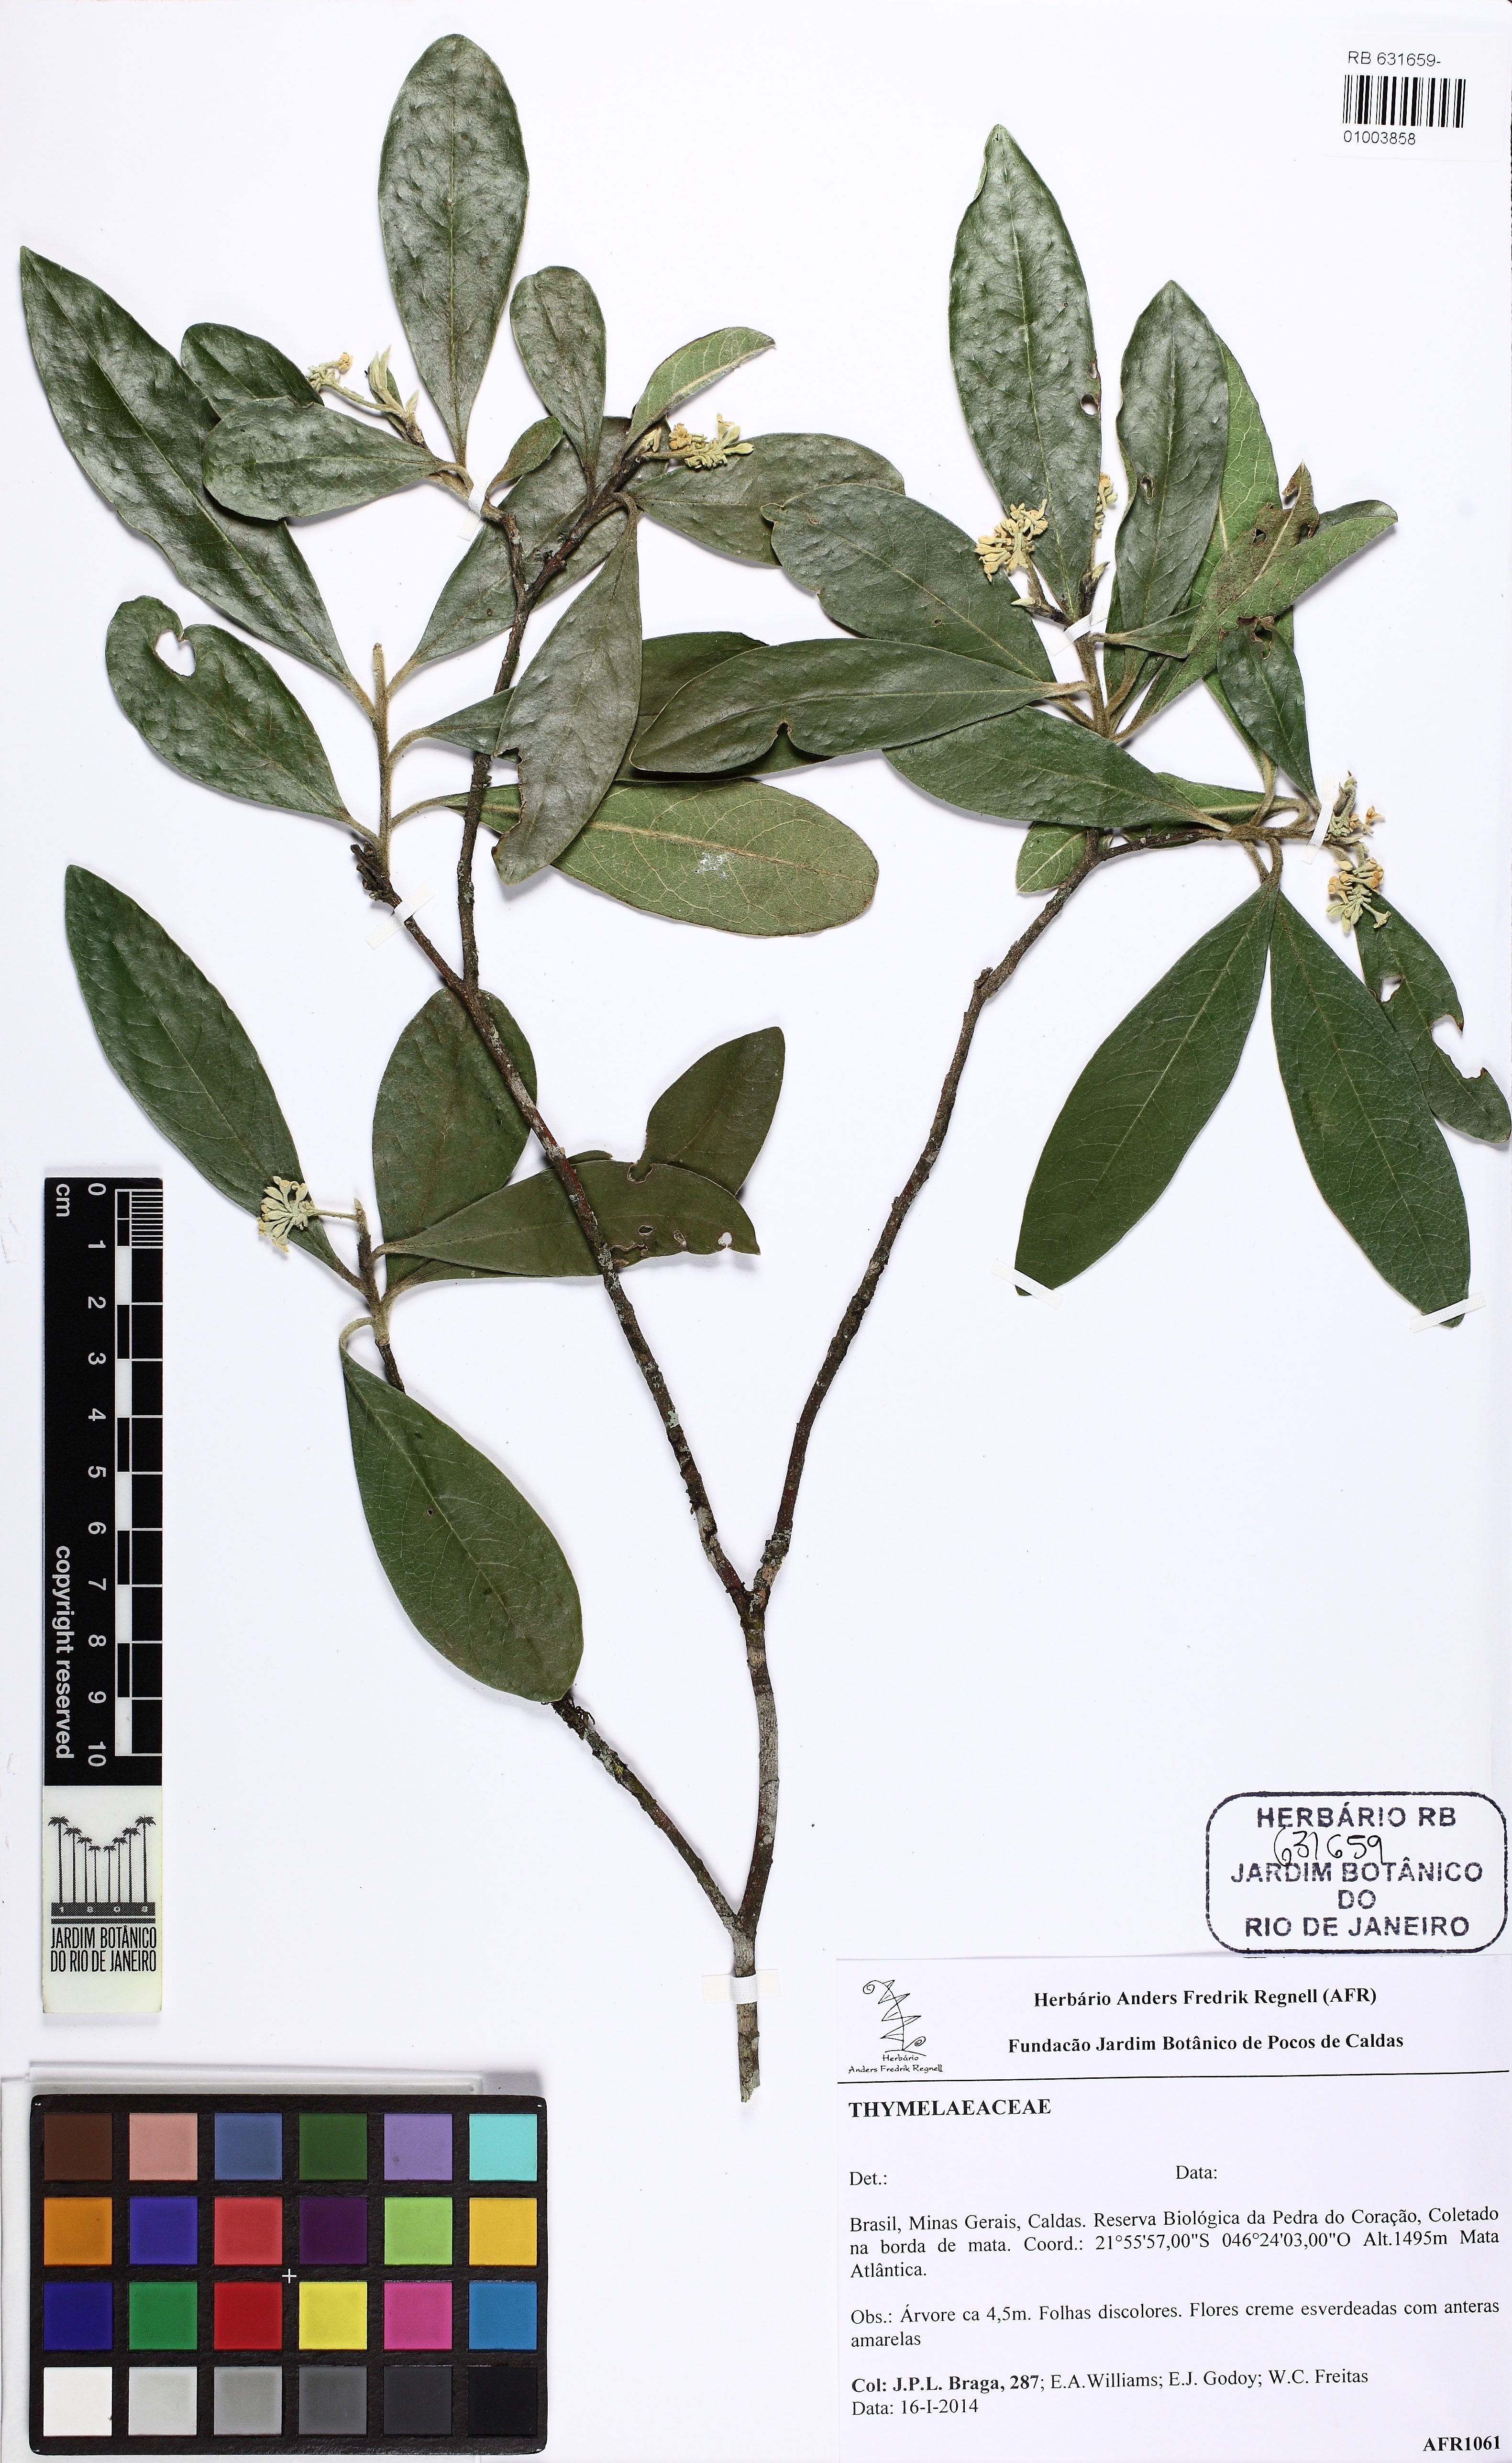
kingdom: Plantae
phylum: Tracheophyta
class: Magnoliopsida
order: Malvales
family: Thymelaeaceae
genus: Daphnopsis
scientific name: Daphnopsis brasiliensis
